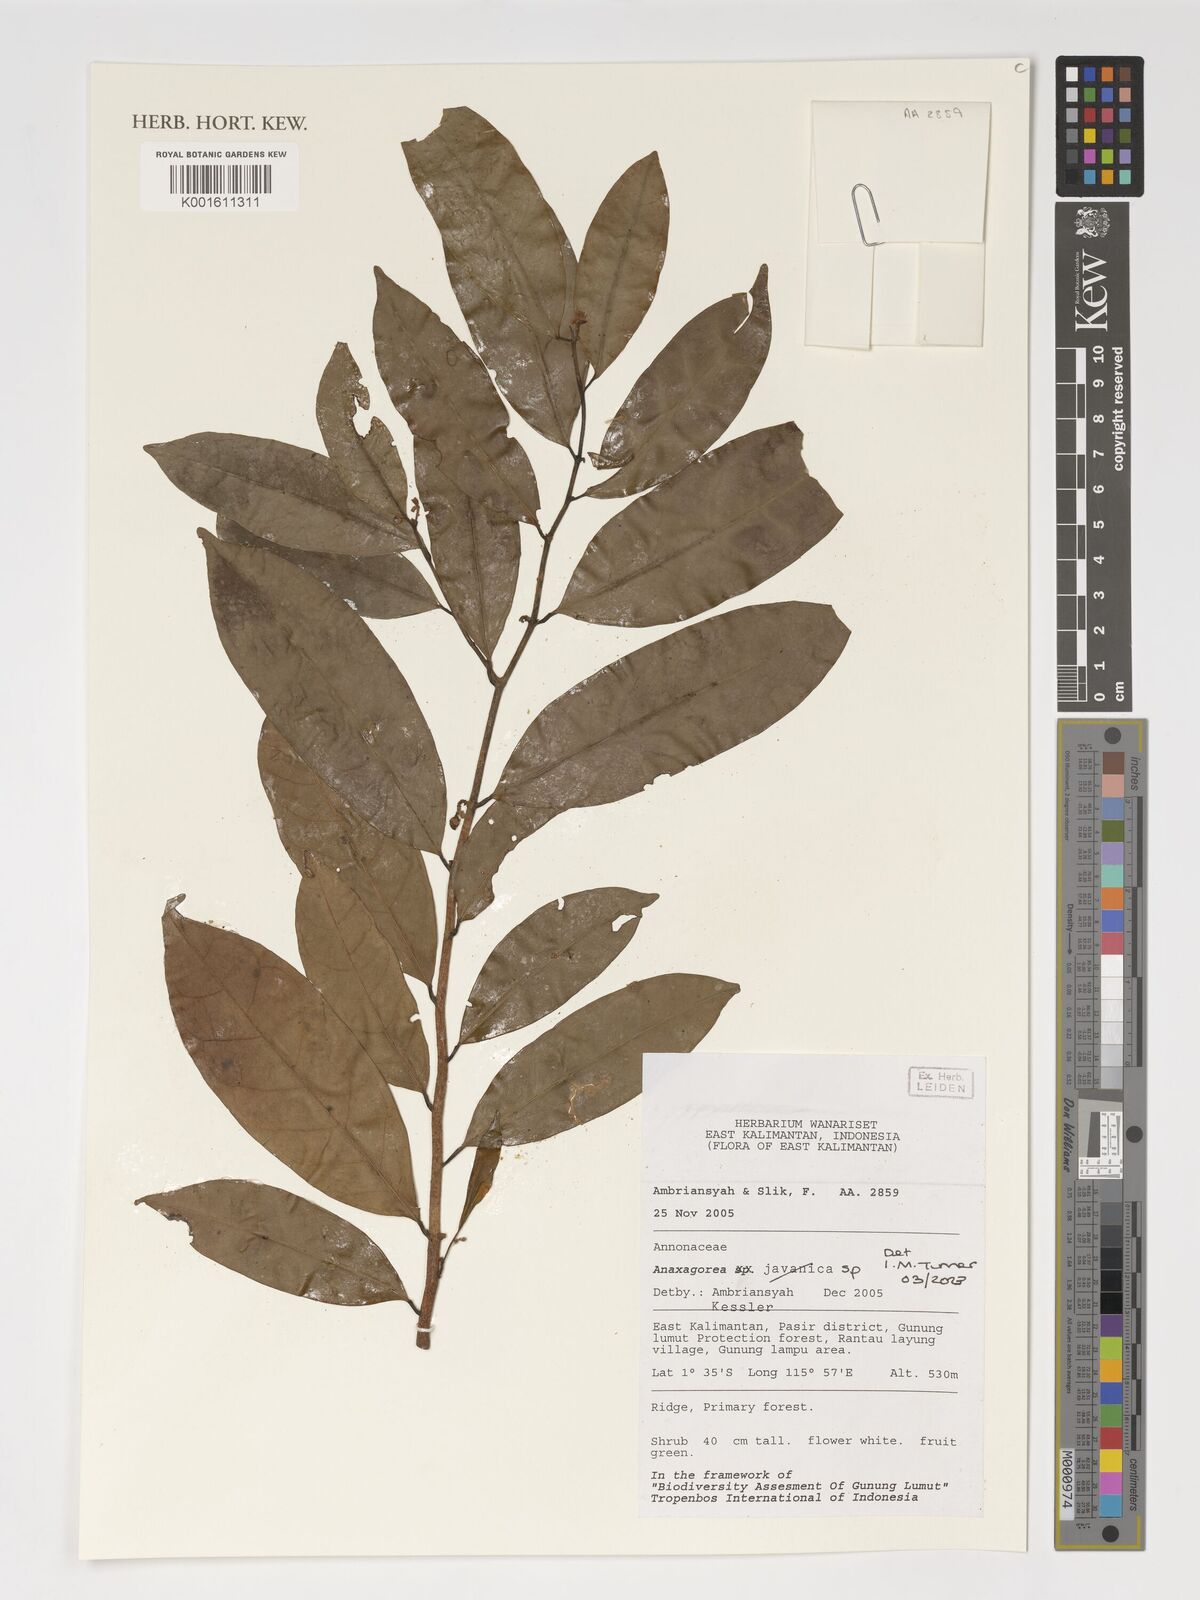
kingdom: Plantae
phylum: Tracheophyta
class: Magnoliopsida
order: Magnoliales
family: Annonaceae
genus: Anaxagorea
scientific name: Anaxagorea
